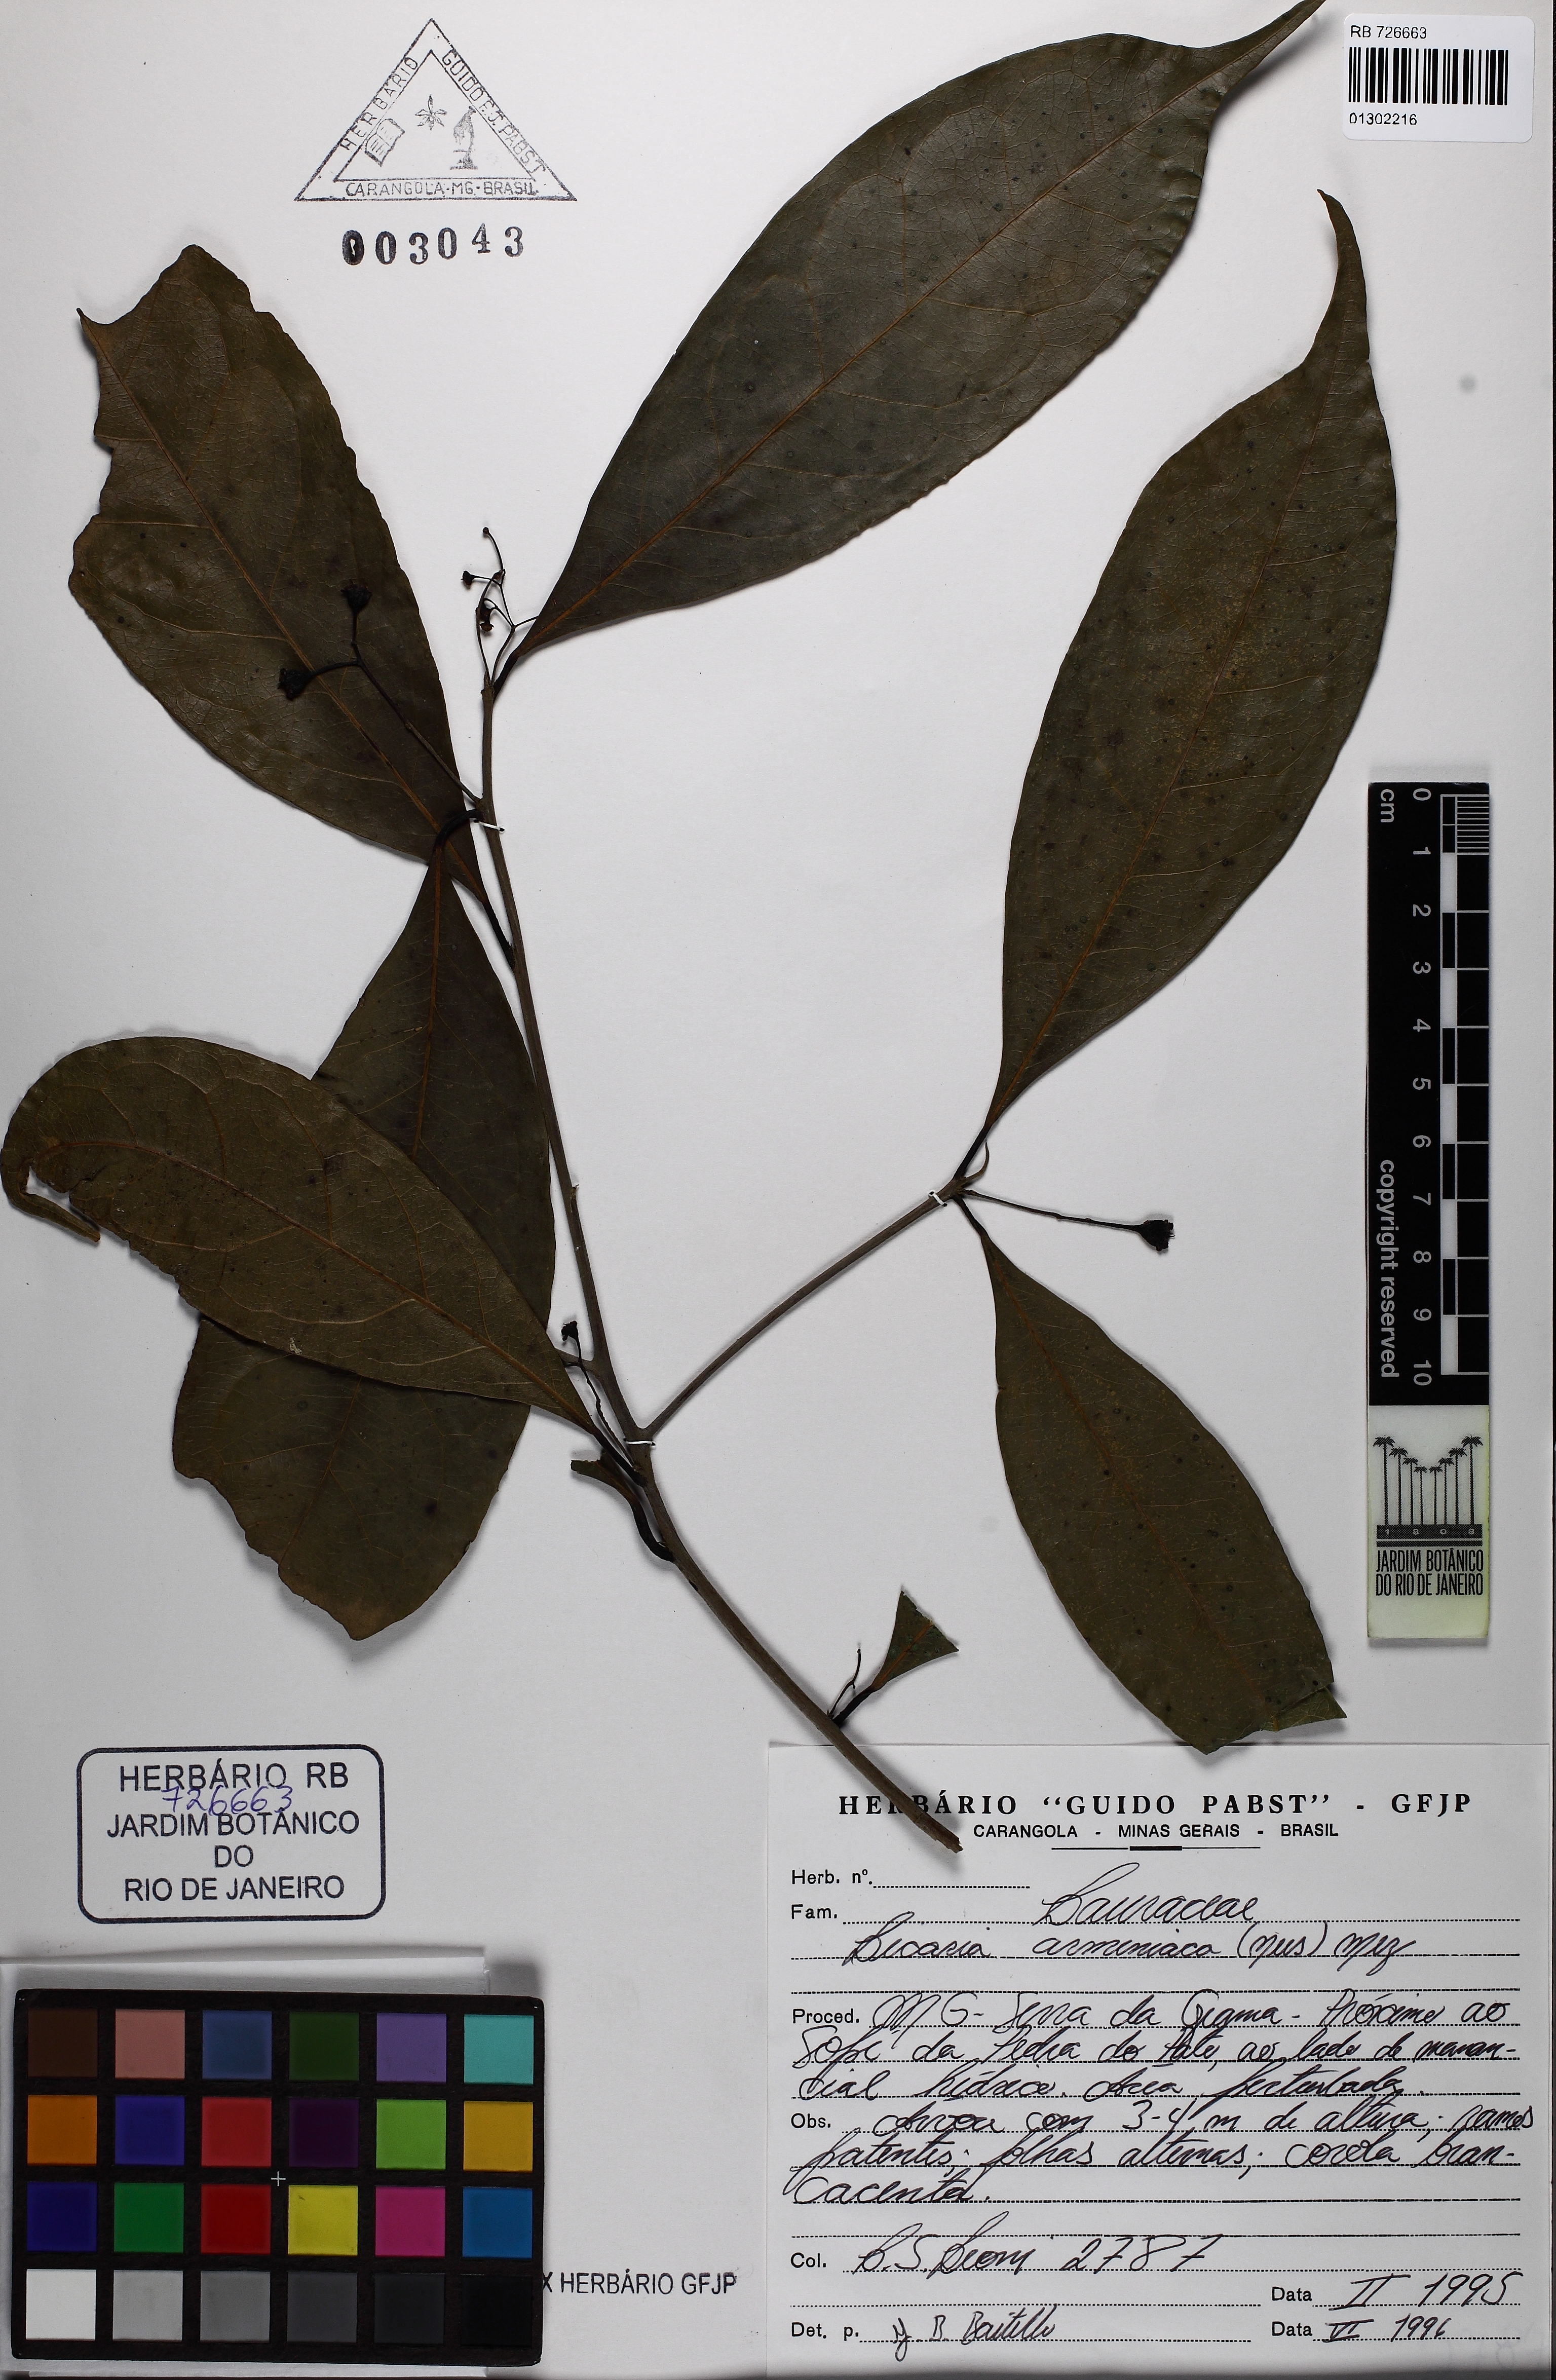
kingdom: Plantae
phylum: Tracheophyta
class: Magnoliopsida
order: Laurales
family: Lauraceae
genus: Licaria
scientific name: Licaria armeniaca
